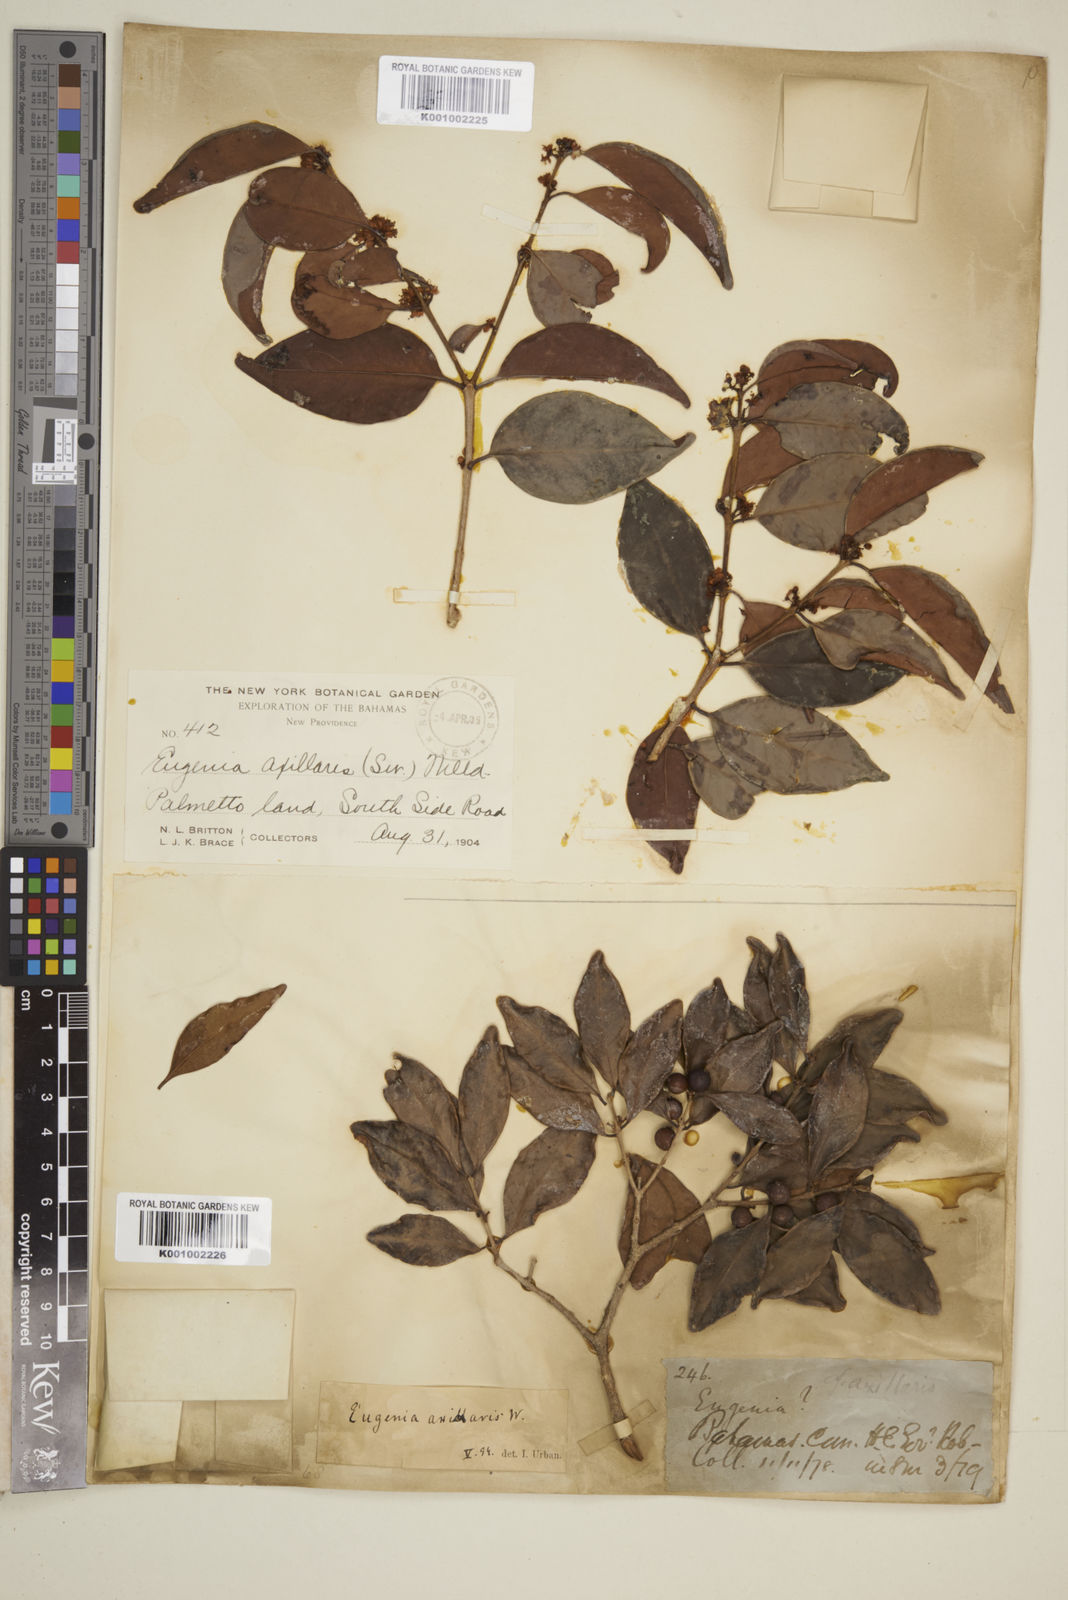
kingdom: Plantae
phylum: Tracheophyta
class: Magnoliopsida
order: Myrtales
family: Myrtaceae
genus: Eugenia
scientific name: Eugenia axillaris
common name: Choaky berry
